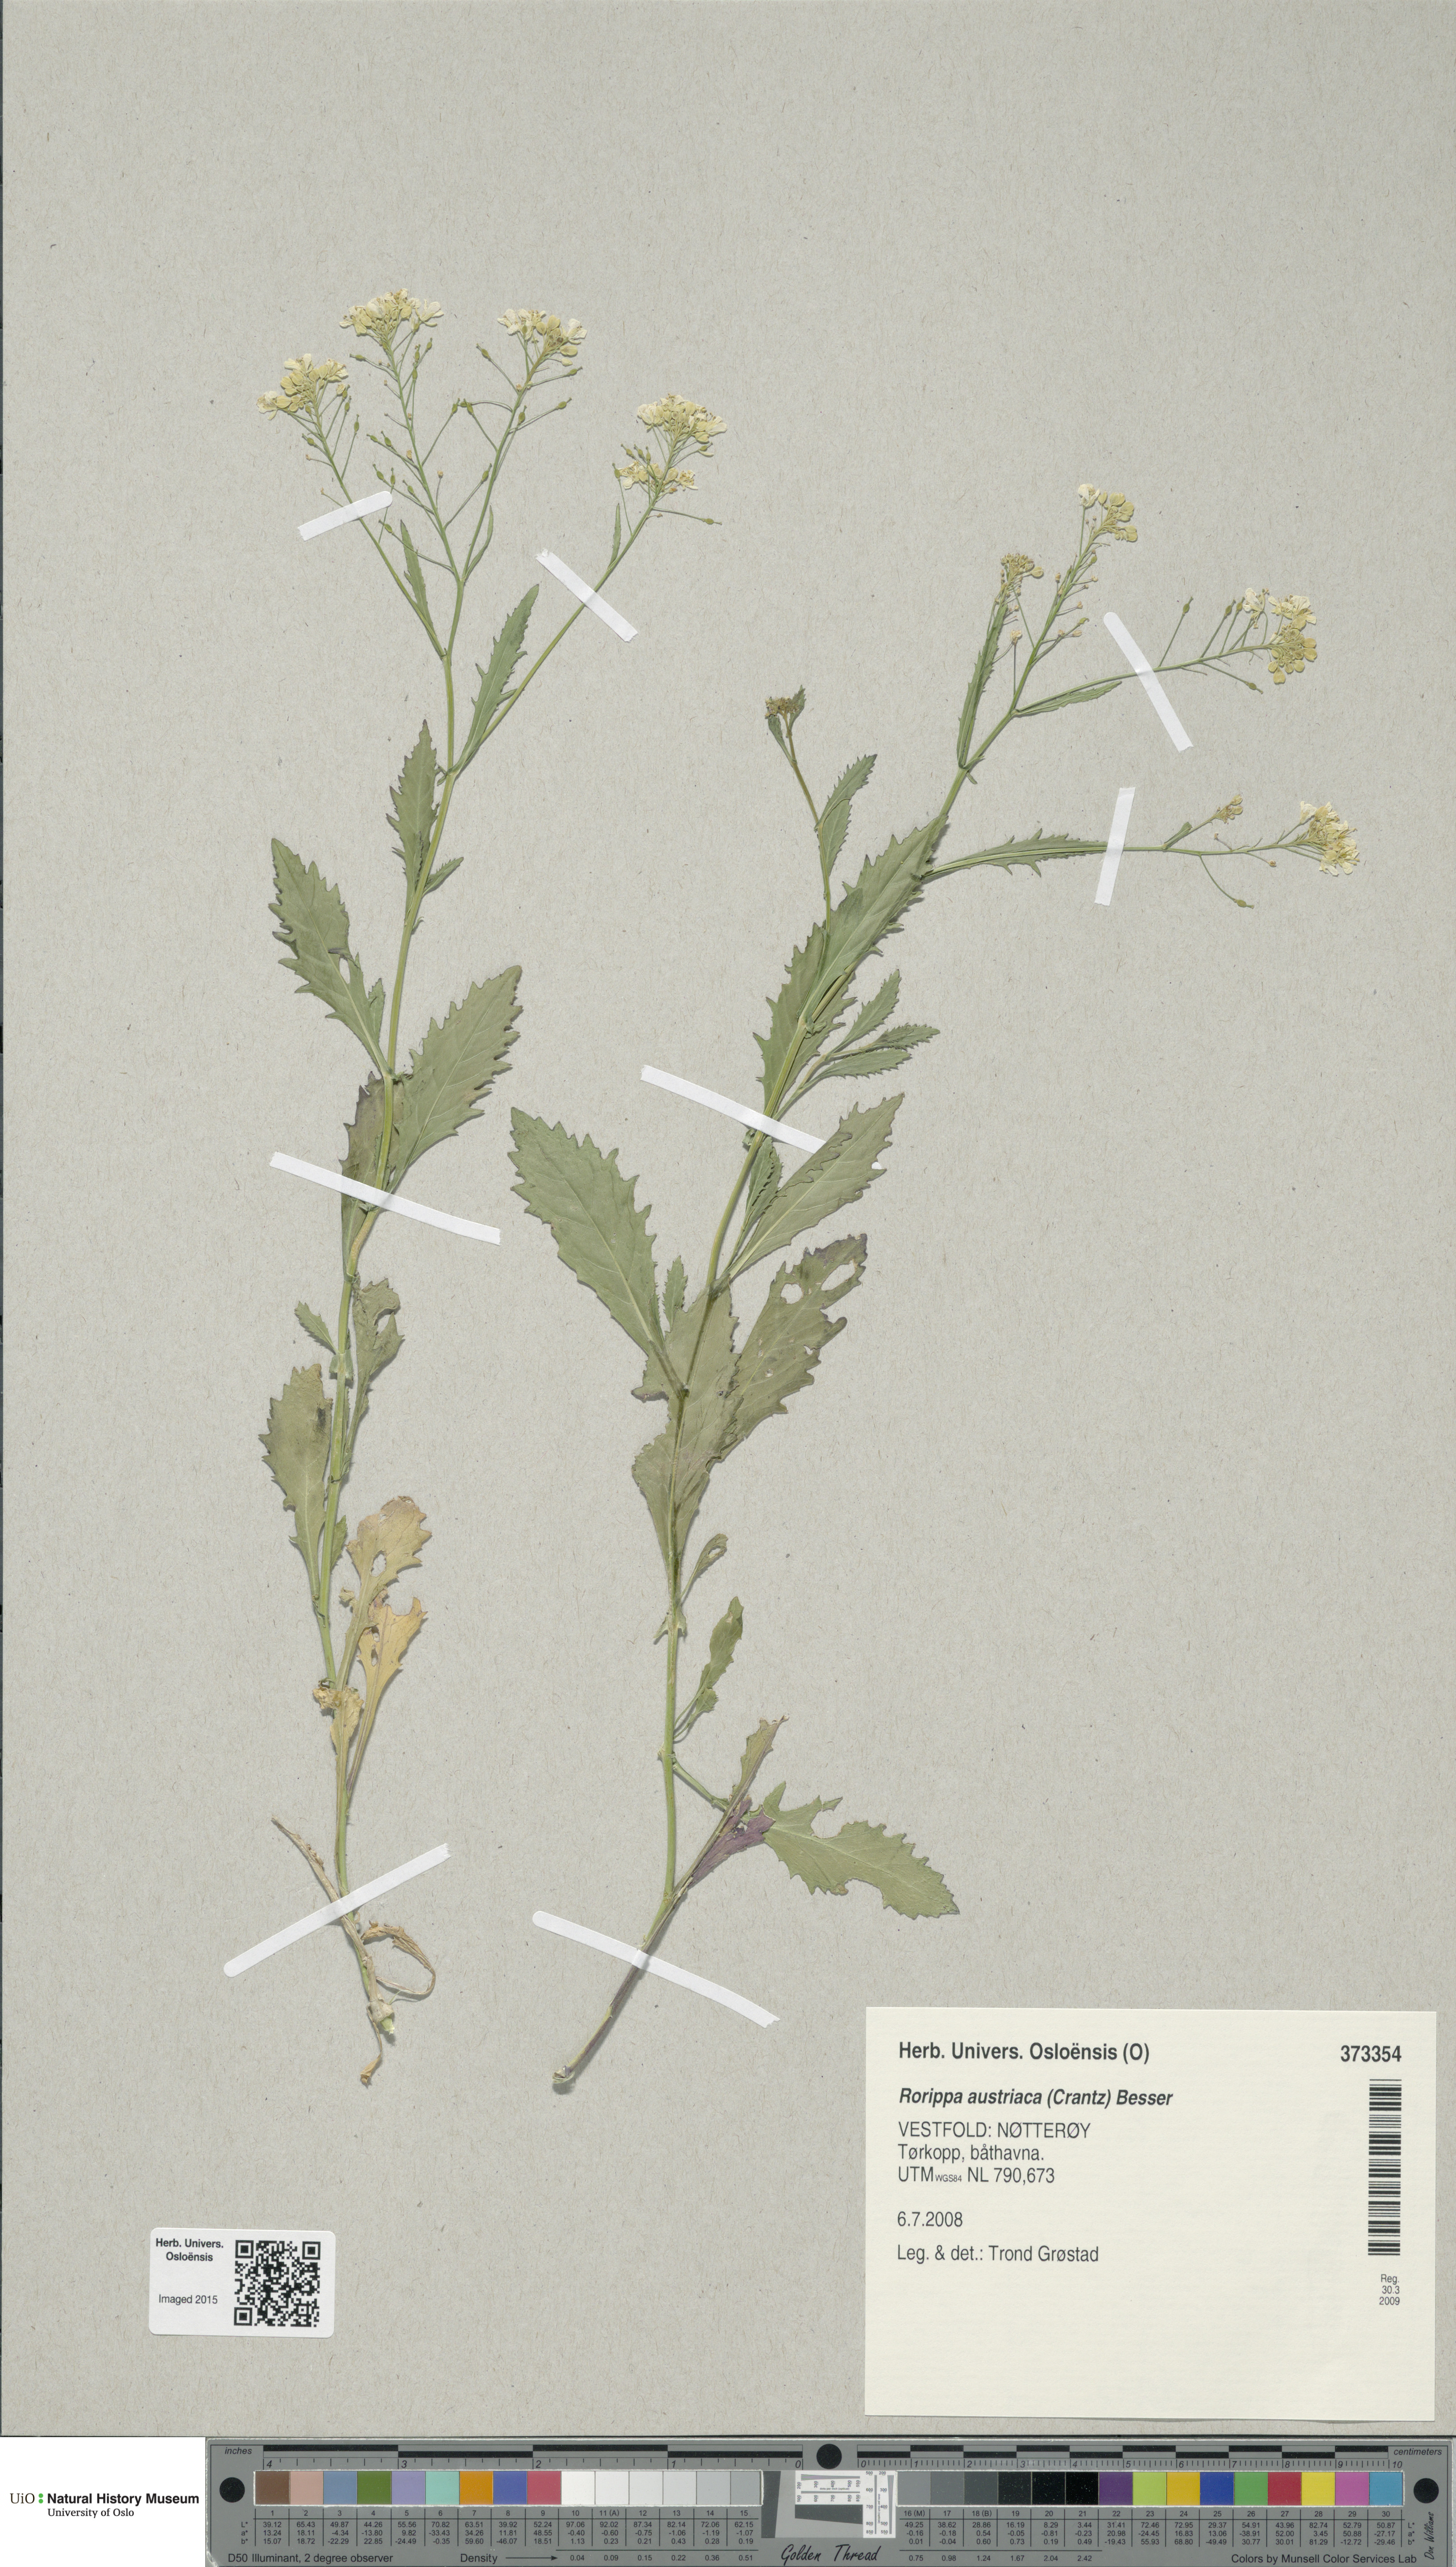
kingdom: Plantae
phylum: Tracheophyta
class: Magnoliopsida
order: Brassicales
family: Brassicaceae
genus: Rorippa
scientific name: Rorippa austriaca
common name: Austrian yellow-cress
